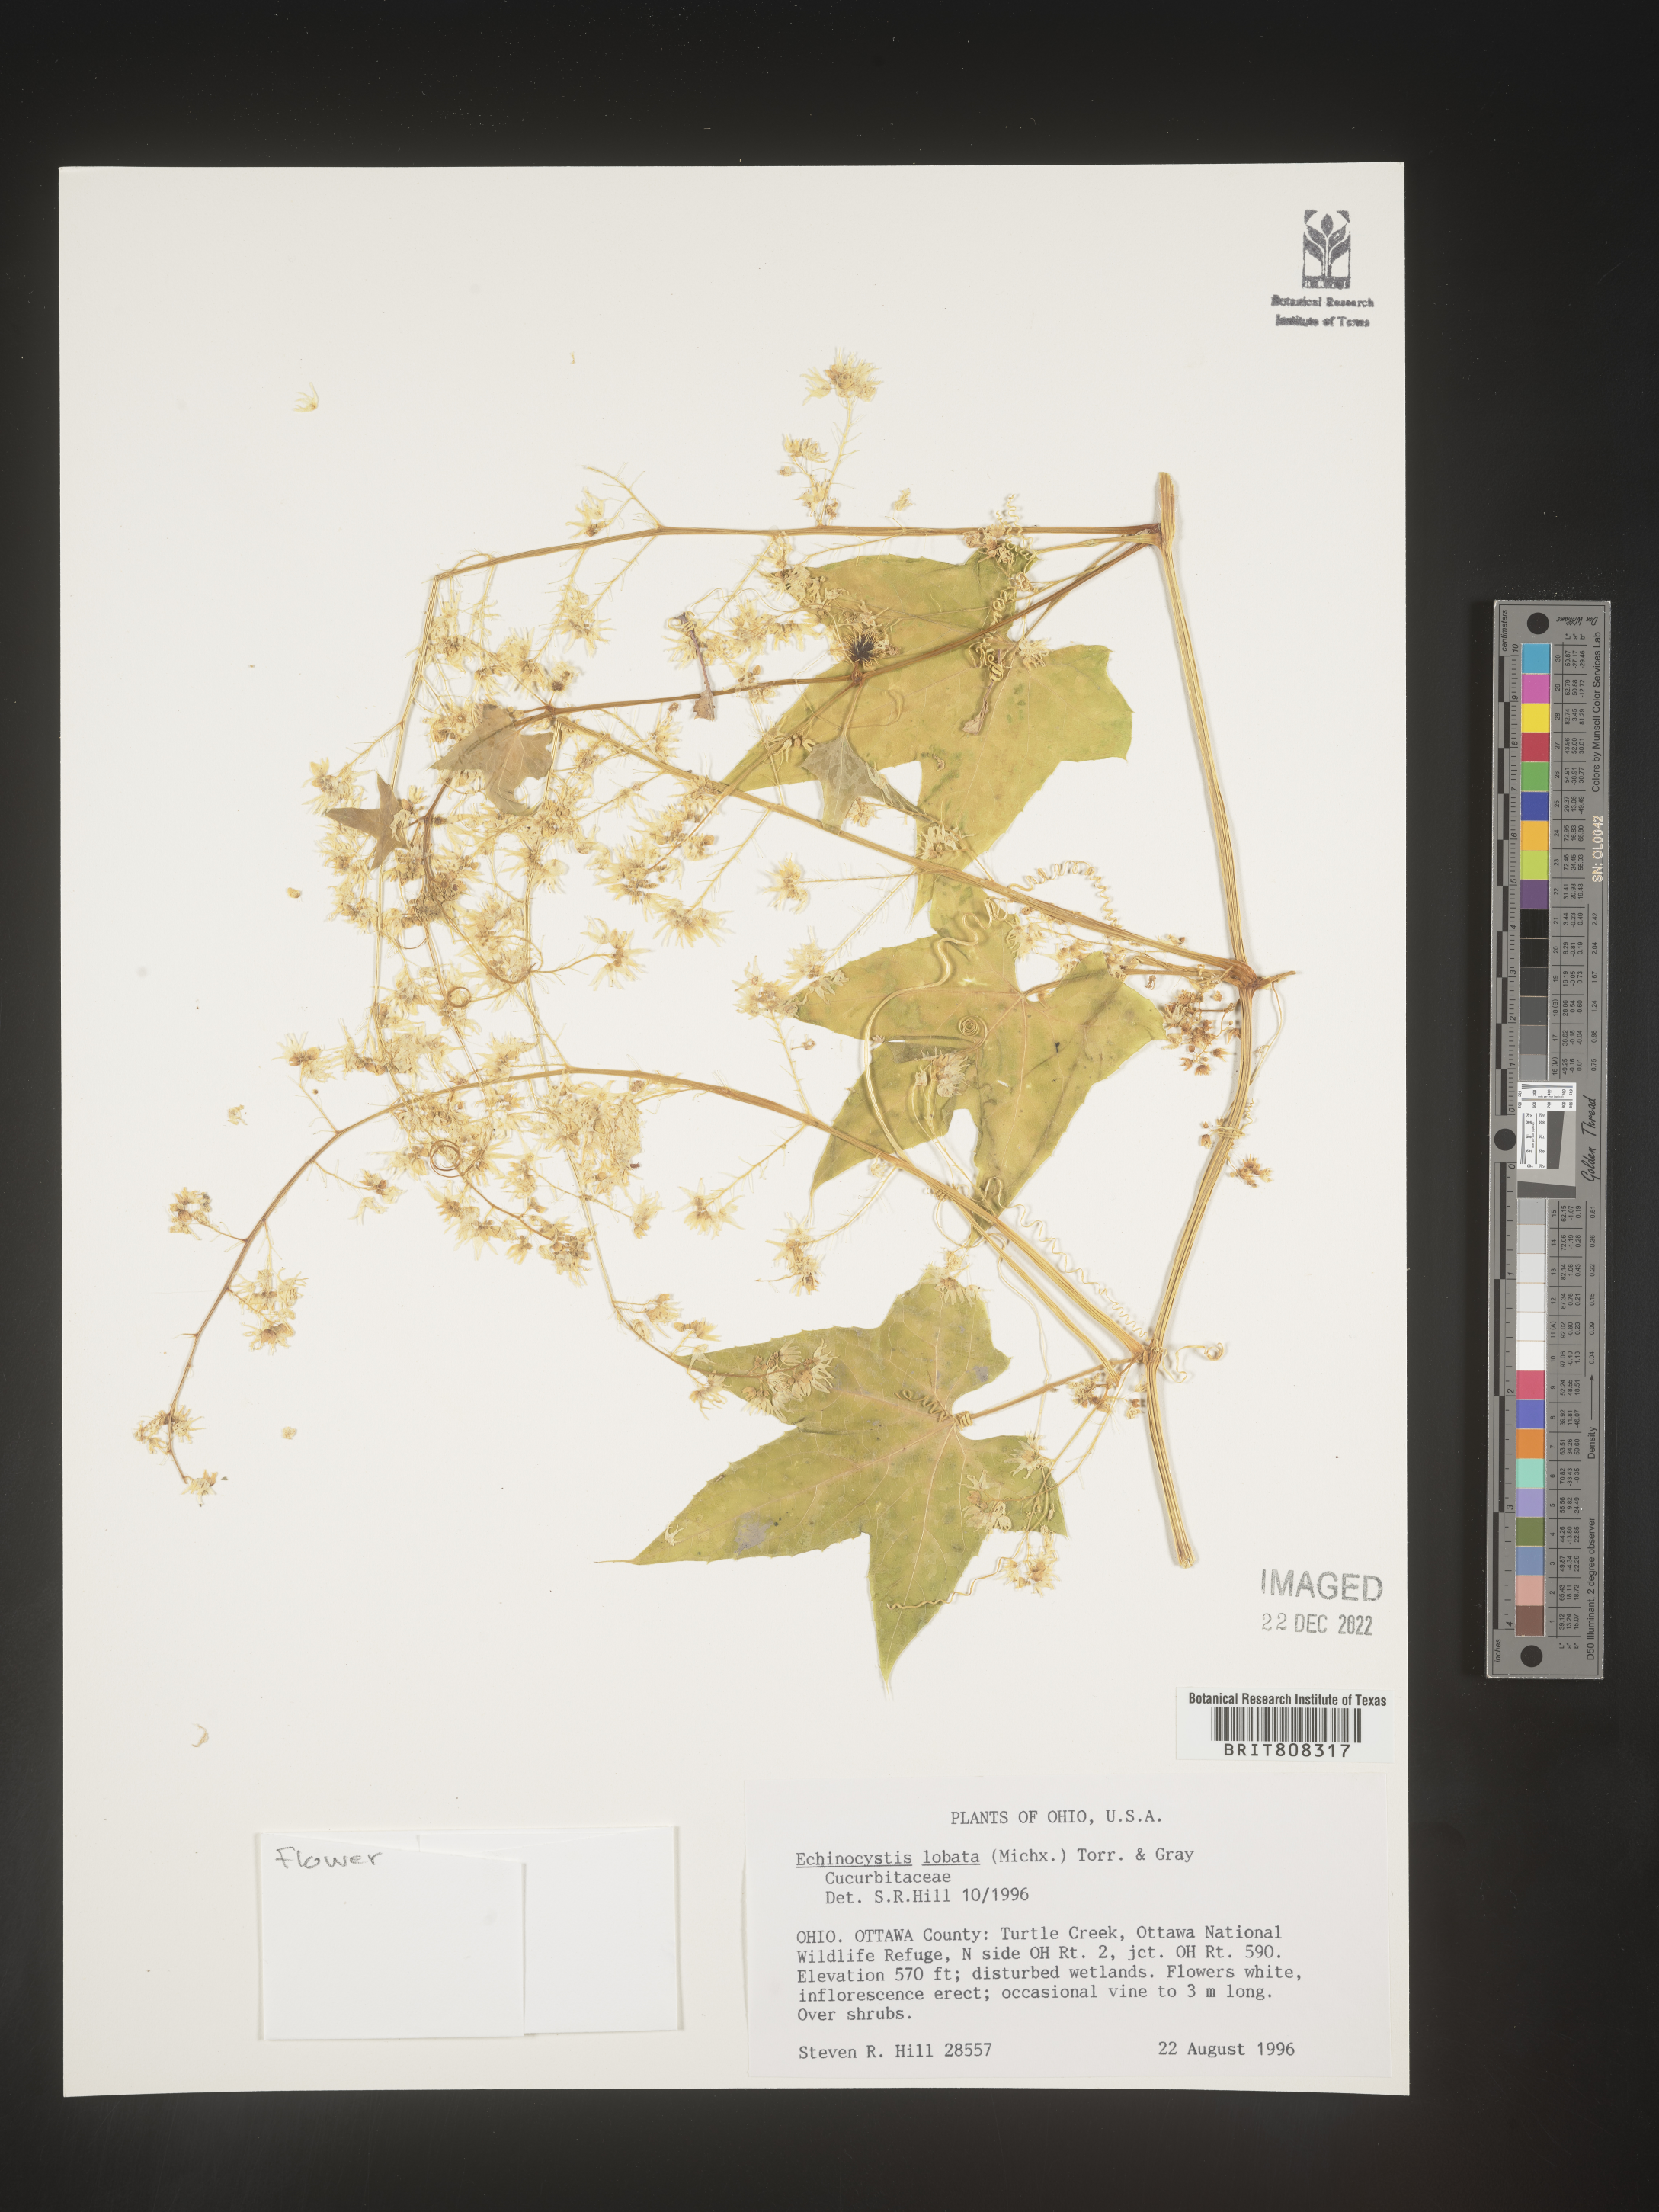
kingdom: Plantae
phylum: Tracheophyta
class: Magnoliopsida
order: Cucurbitales
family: Cucurbitaceae
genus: Echinocystis
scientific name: Echinocystis
